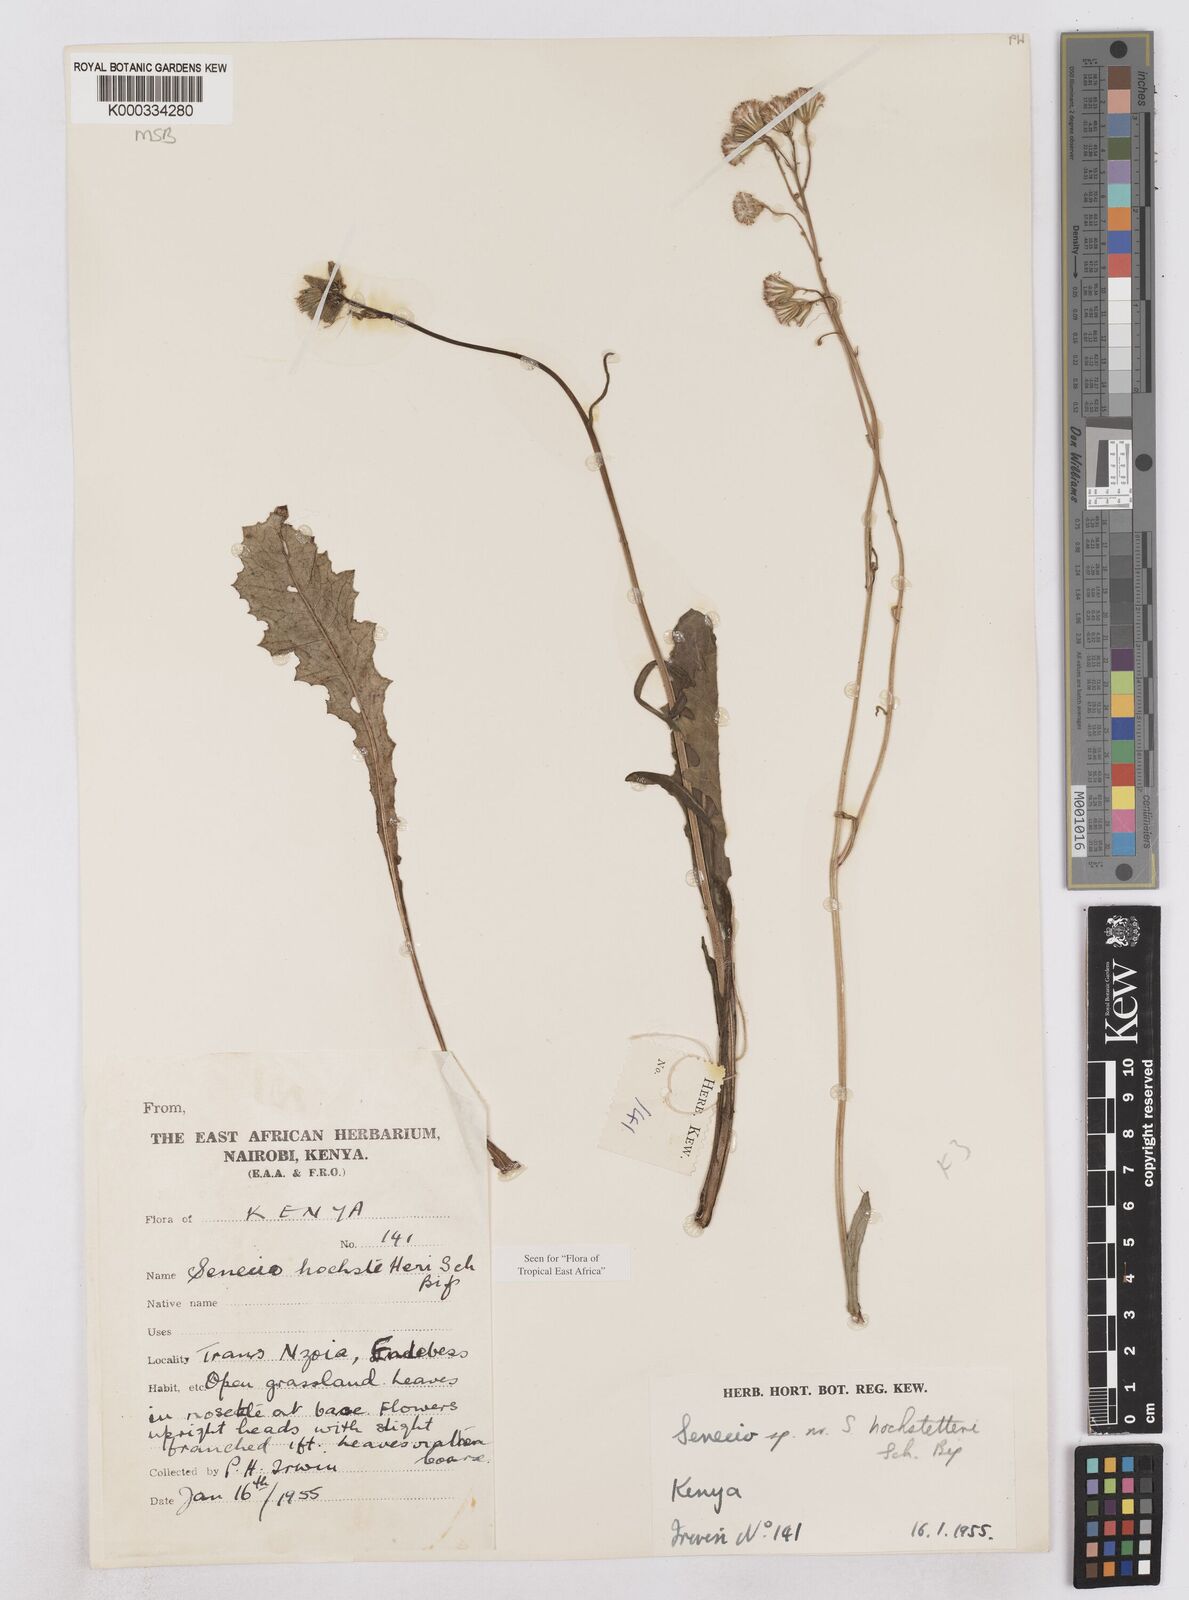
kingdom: Plantae
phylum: Tracheophyta
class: Magnoliopsida
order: Asterales
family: Asteraceae
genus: Senecio
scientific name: Senecio hochstetteri
